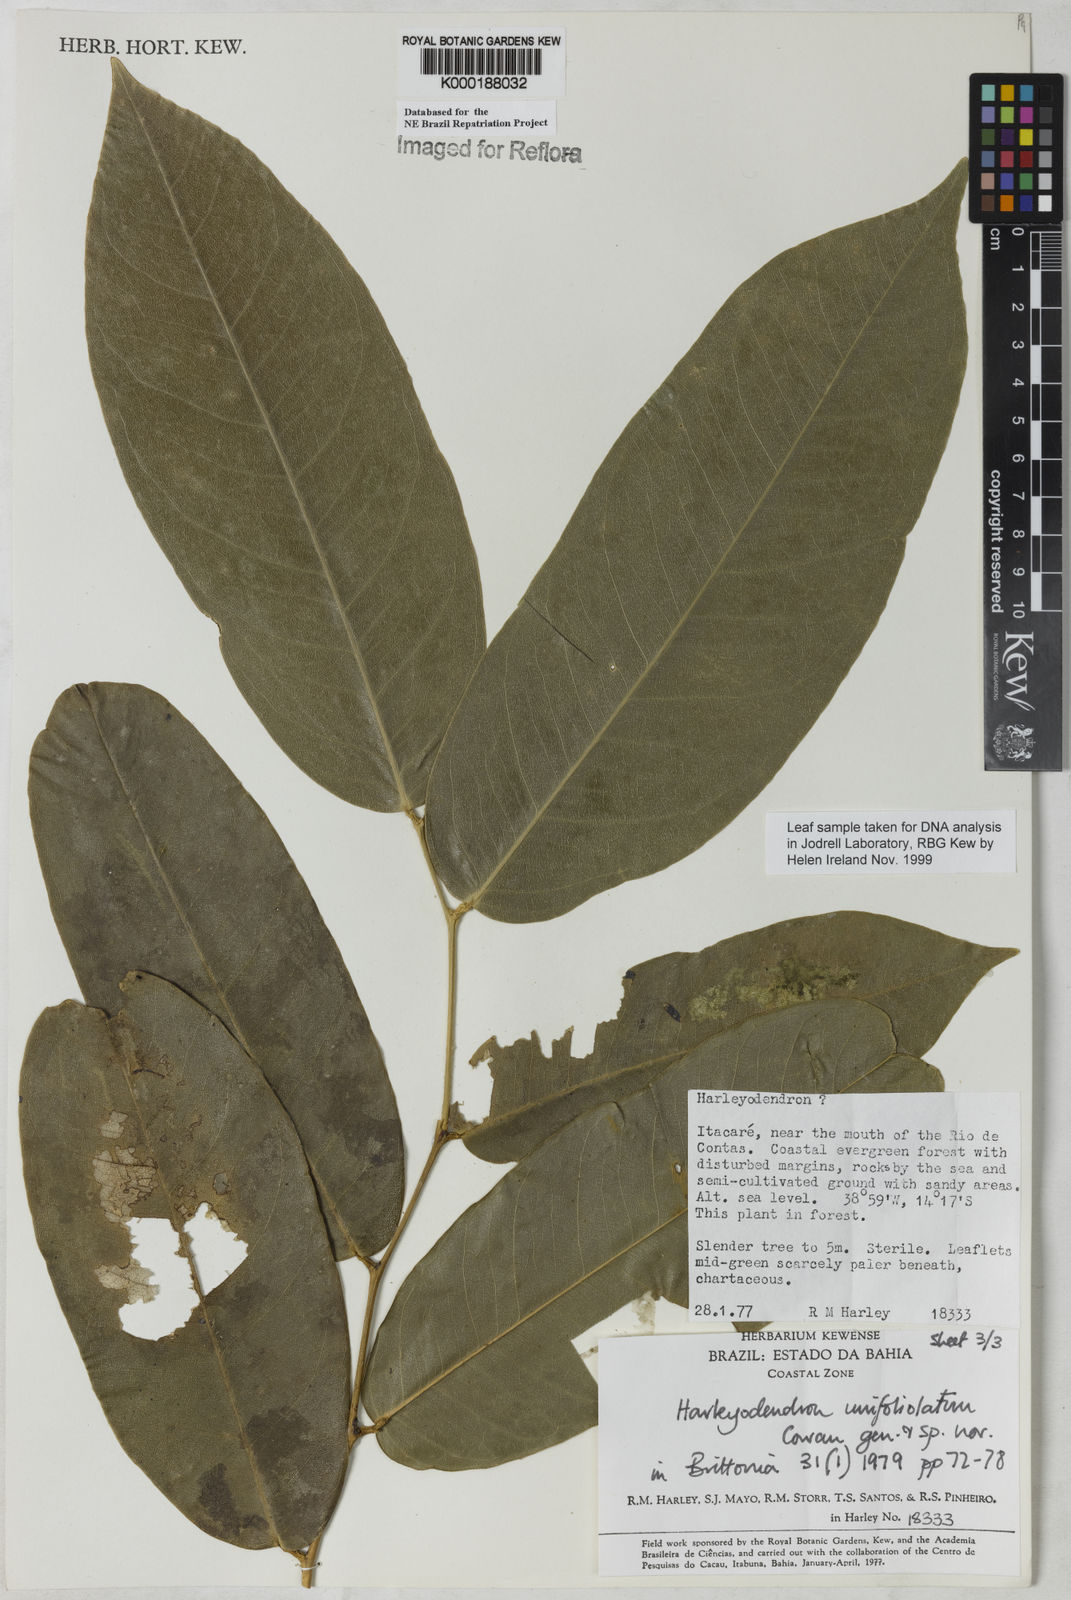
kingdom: Plantae
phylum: Tracheophyta
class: Magnoliopsida
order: Fabales
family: Fabaceae
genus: Harleyodendron
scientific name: Harleyodendron unifoliolatum
